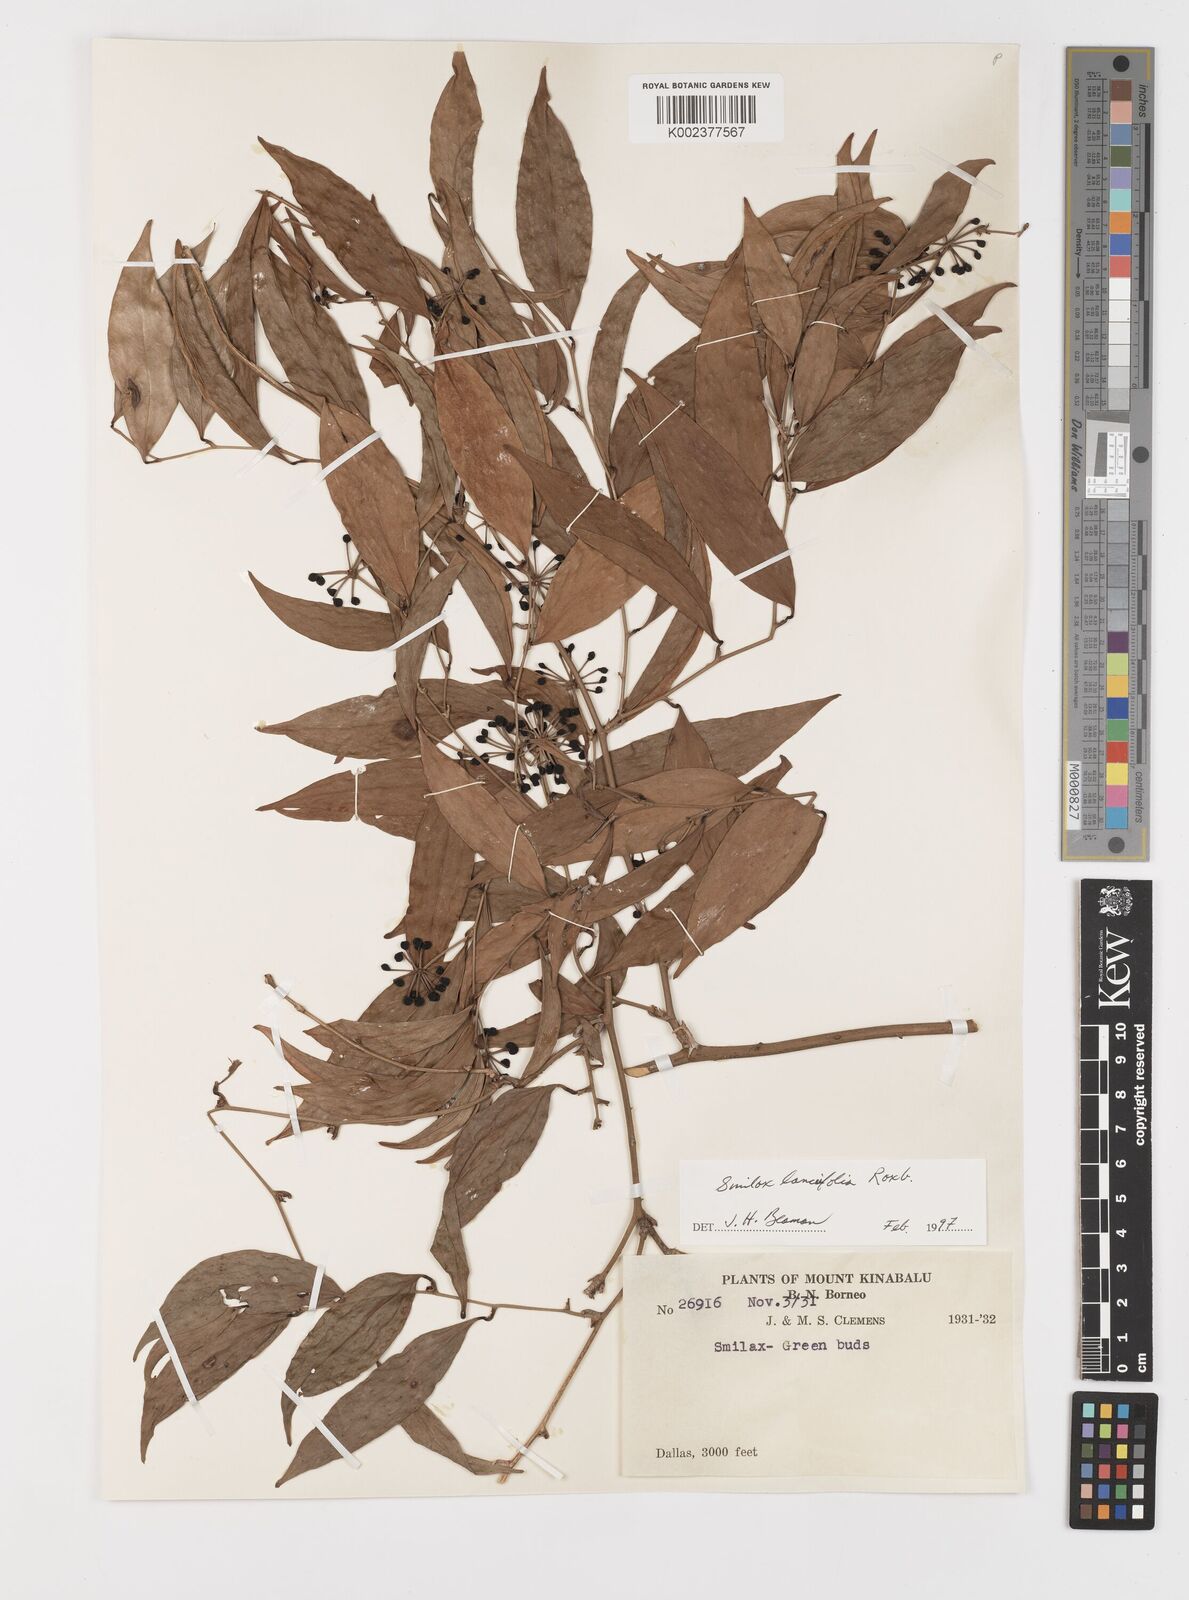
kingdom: Plantae
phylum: Tracheophyta
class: Liliopsida
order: Liliales
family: Smilacaceae
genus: Smilax
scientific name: Smilax lanceifolia
